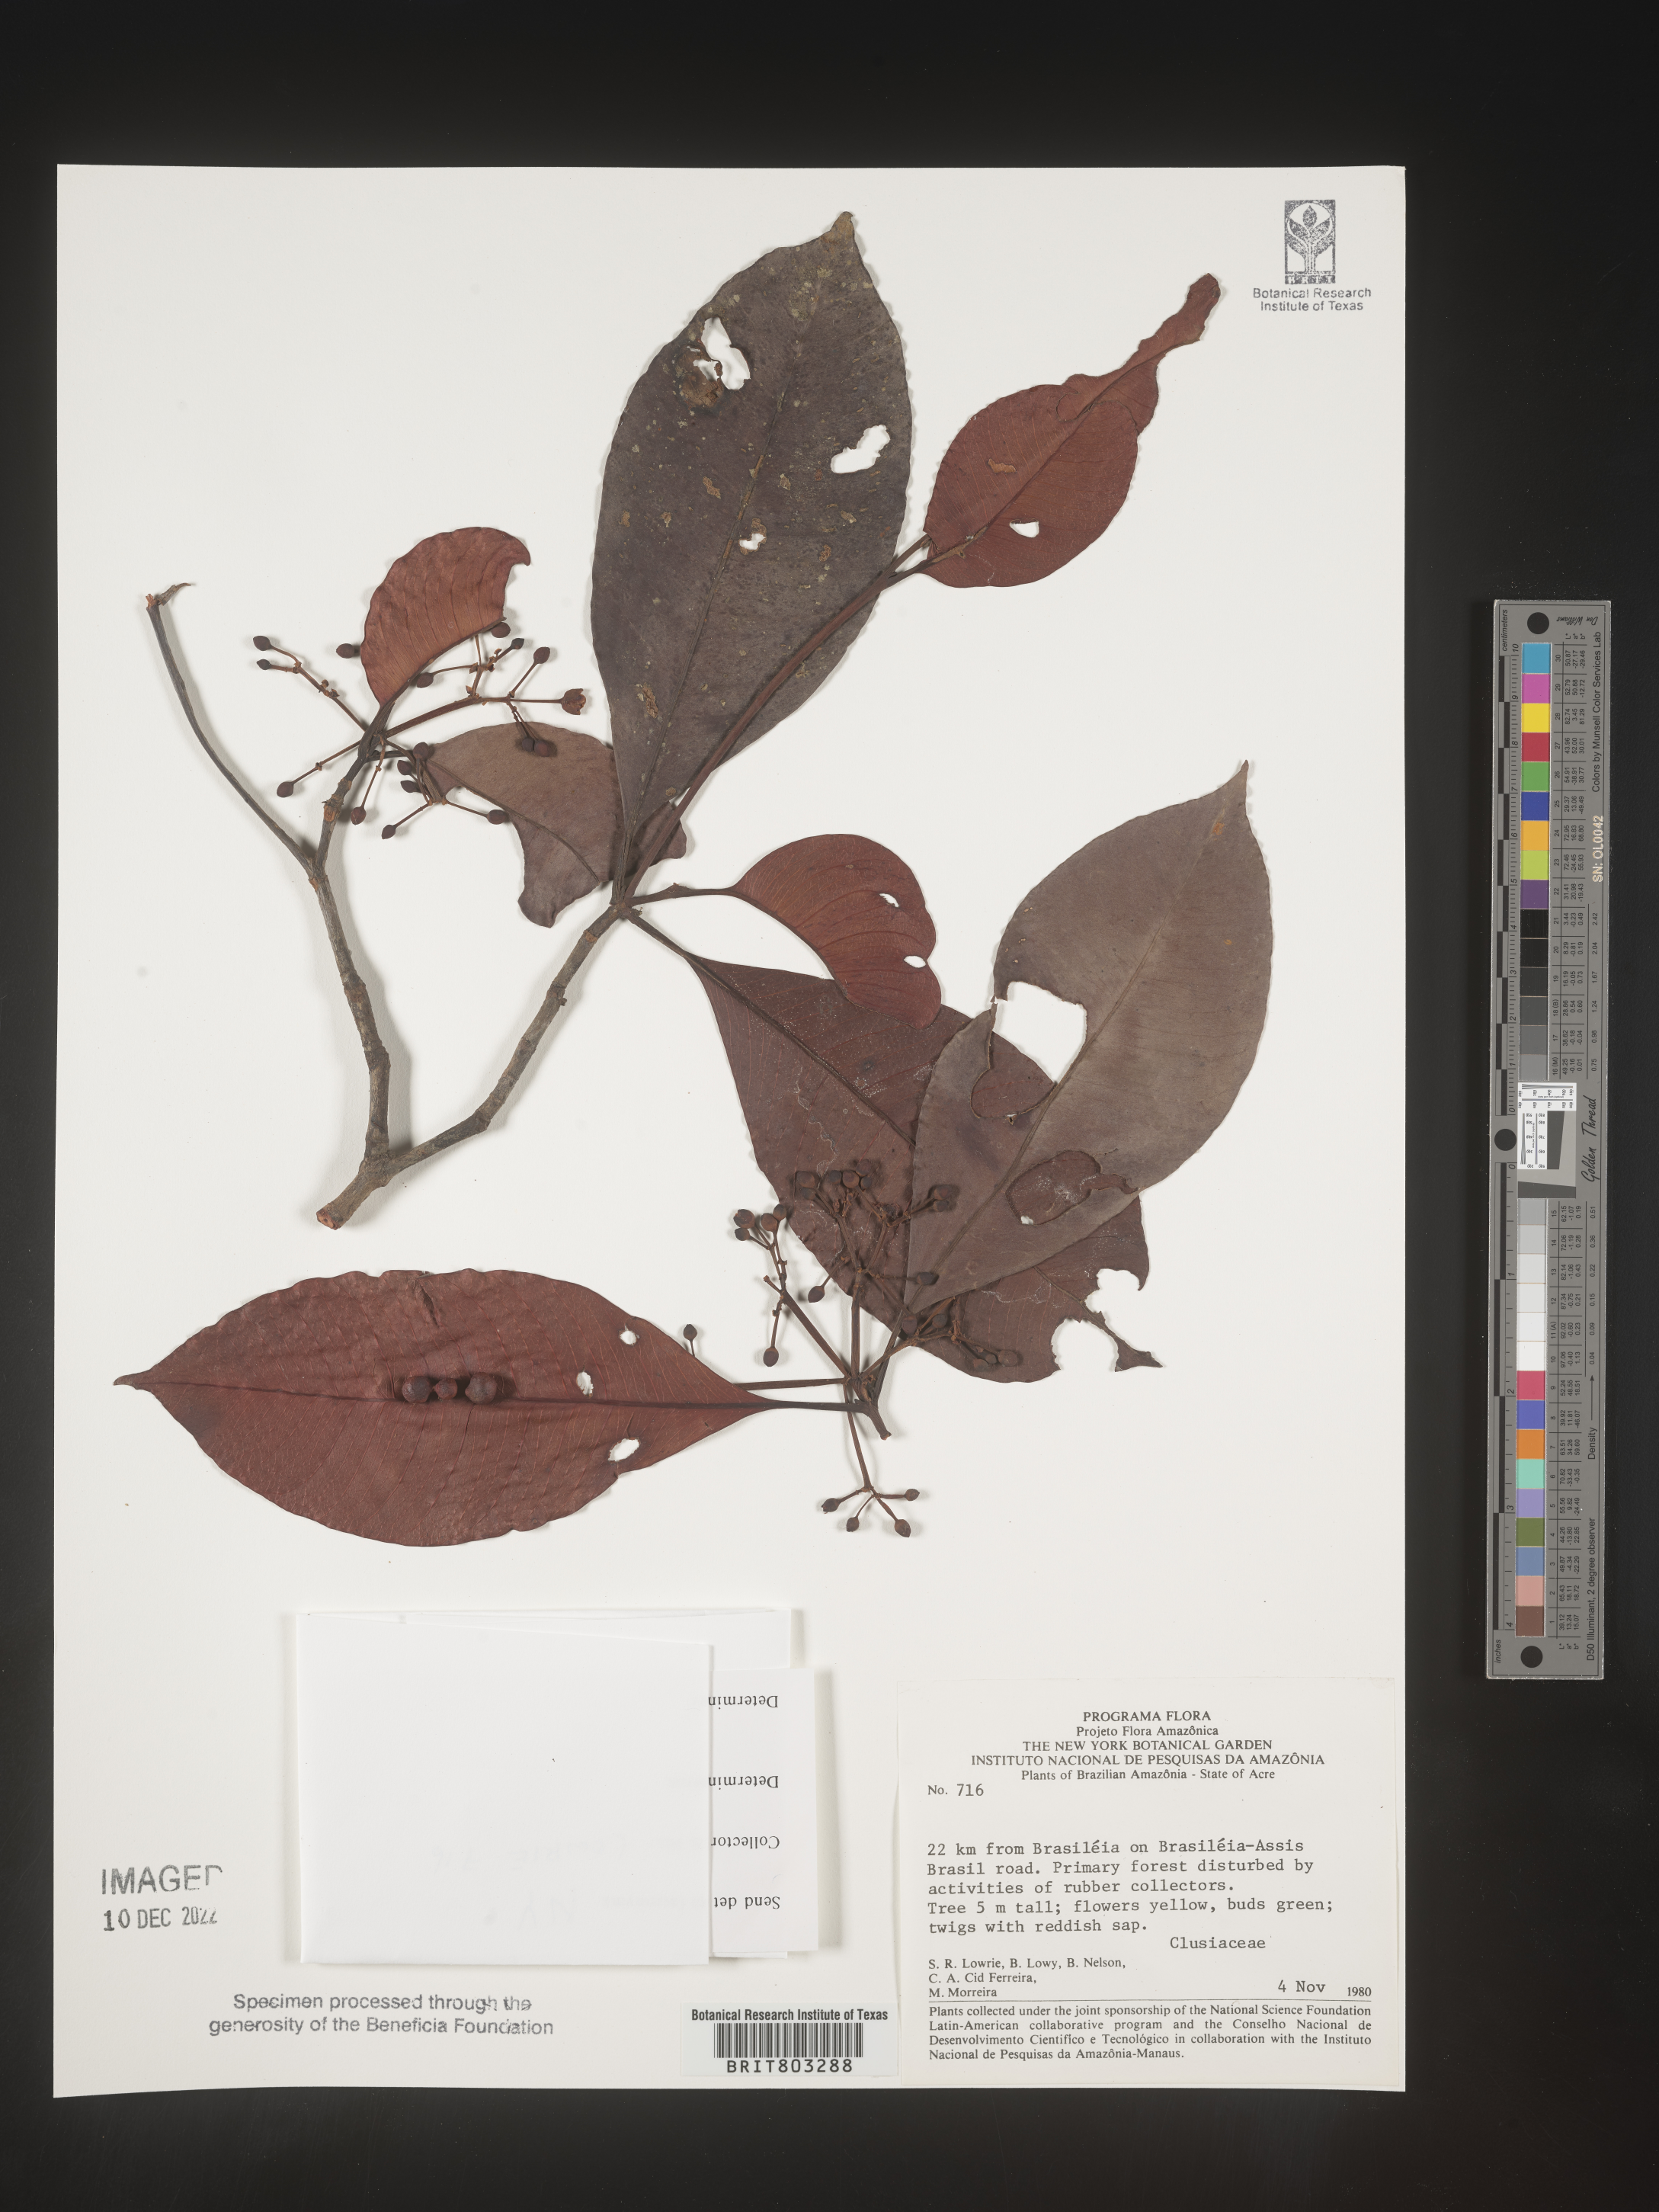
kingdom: Plantae
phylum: Tracheophyta
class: Magnoliopsida
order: Malpighiales
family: Clusiaceae
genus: Tovomita
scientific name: Tovomita
